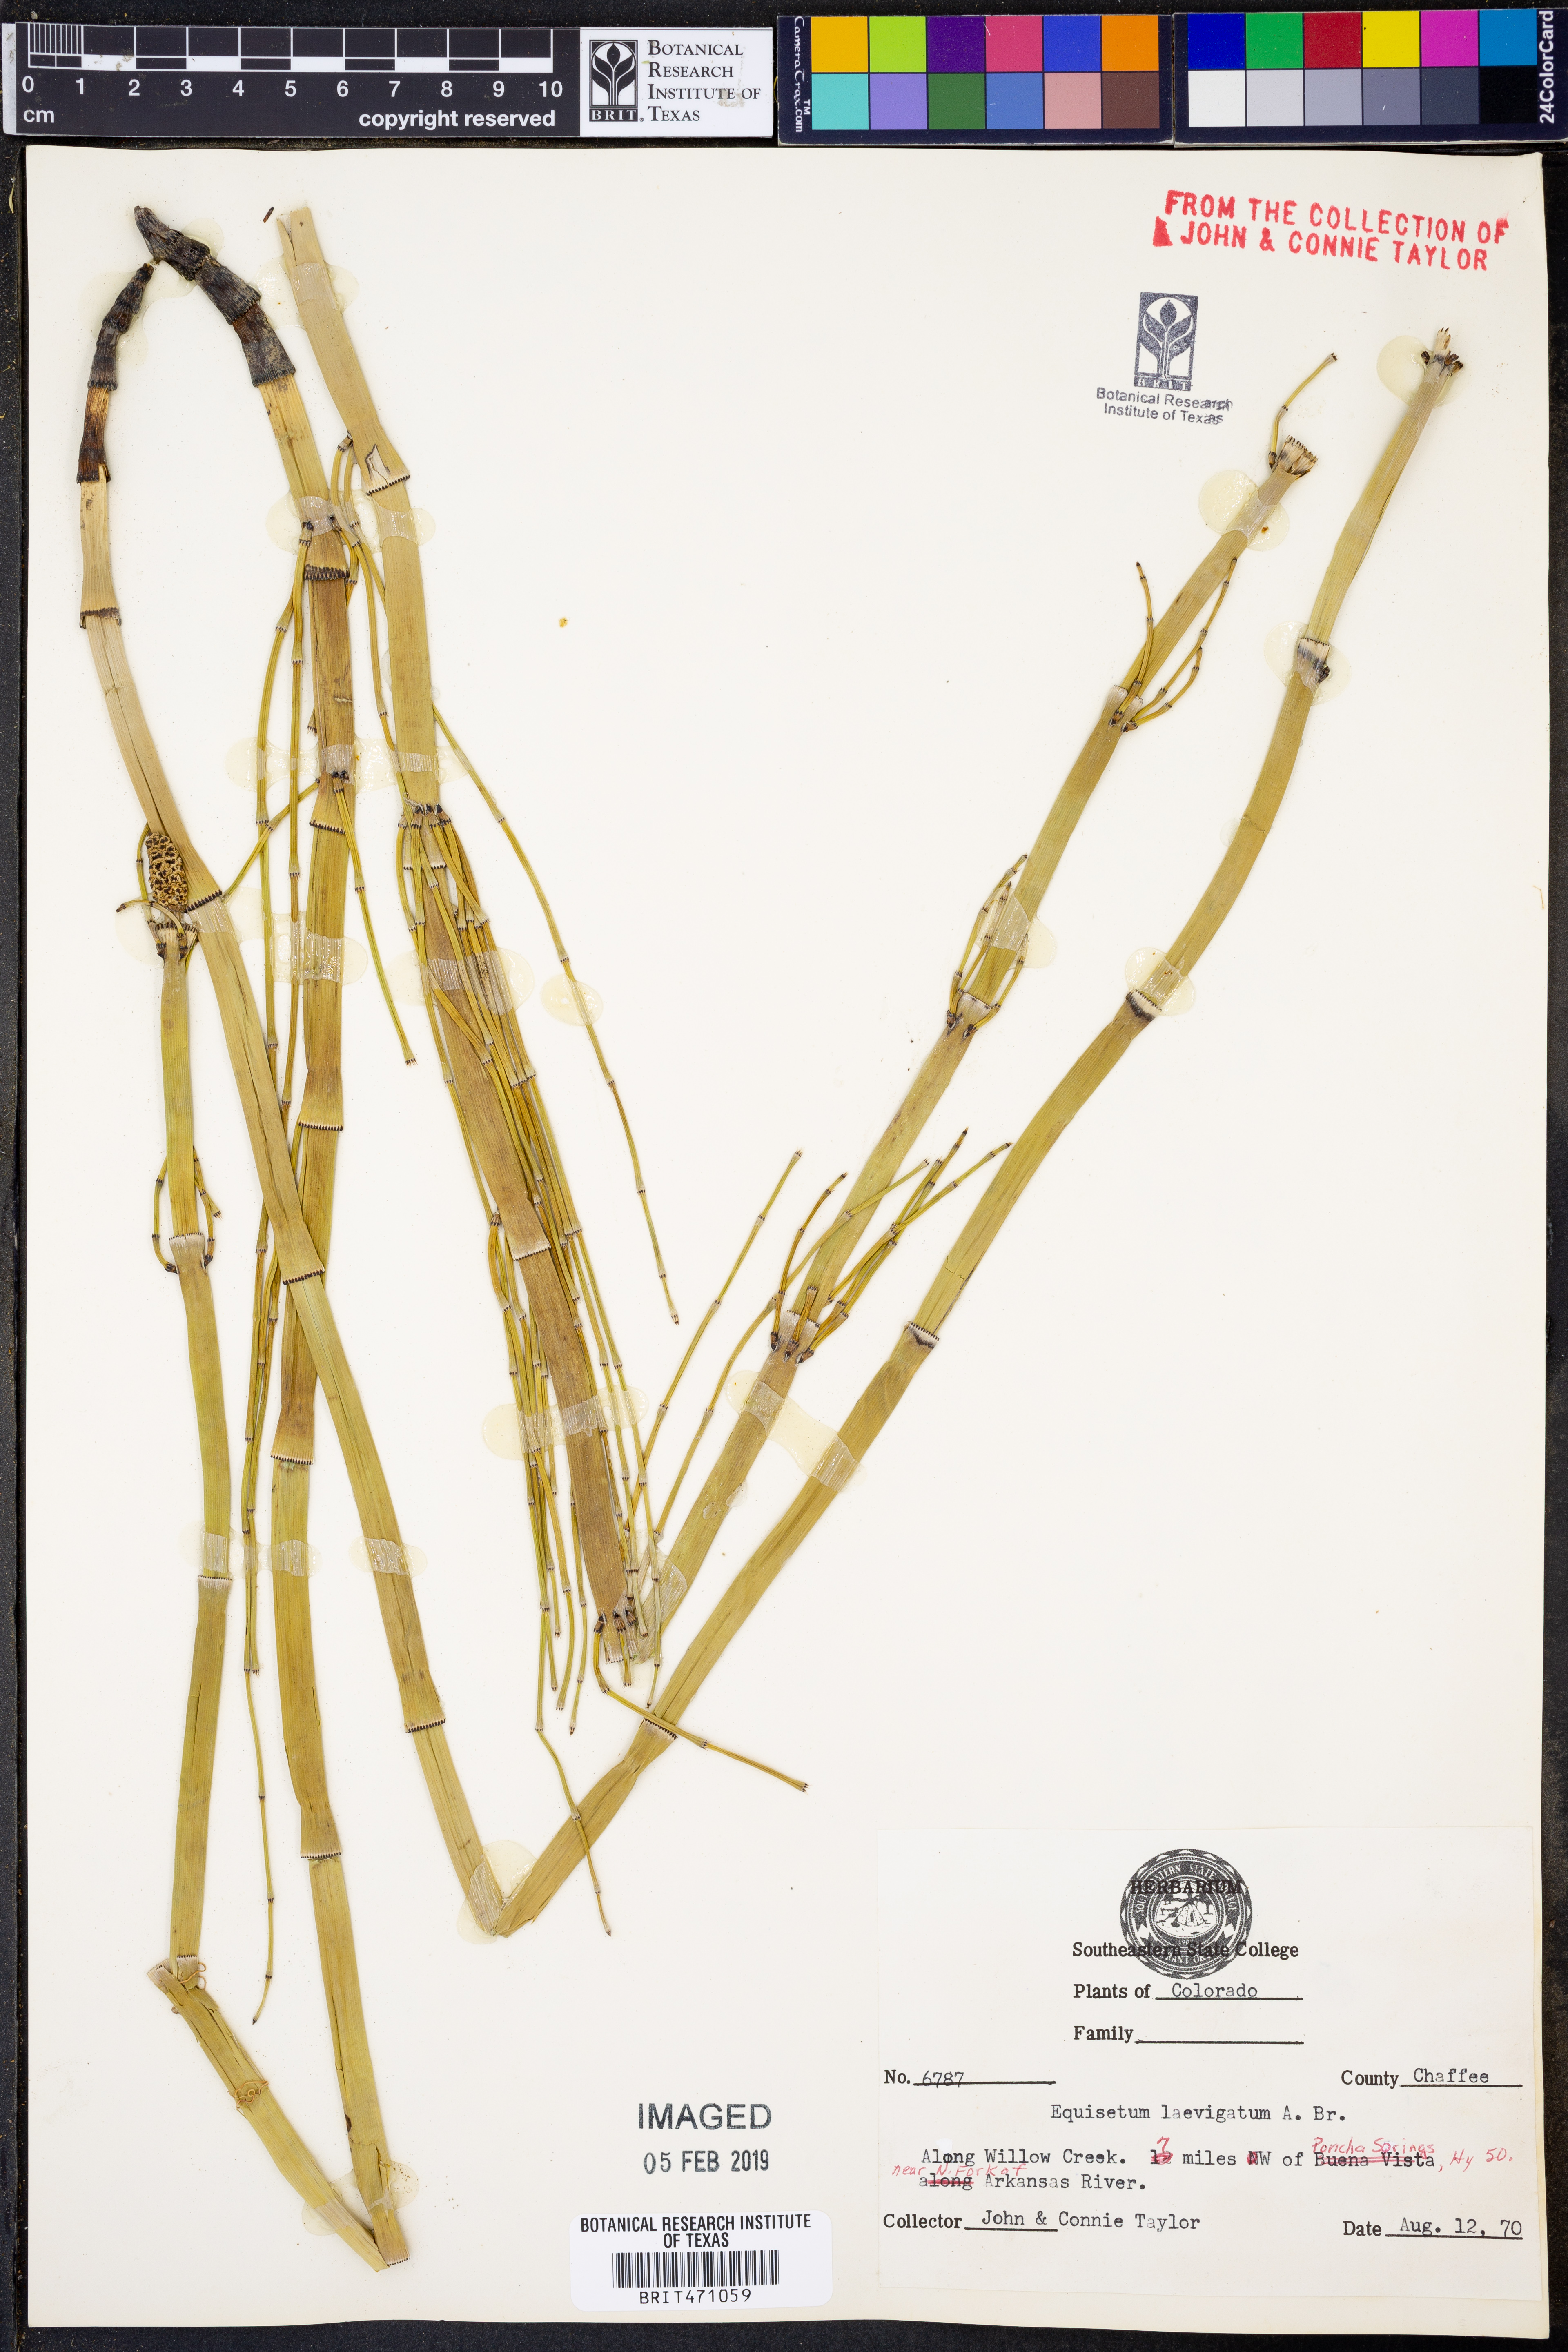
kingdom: Plantae
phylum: Tracheophyta
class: Polypodiopsida
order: Equisetales
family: Equisetaceae
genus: Equisetum
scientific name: Equisetum laevigatum
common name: Smooth scouring-rush
